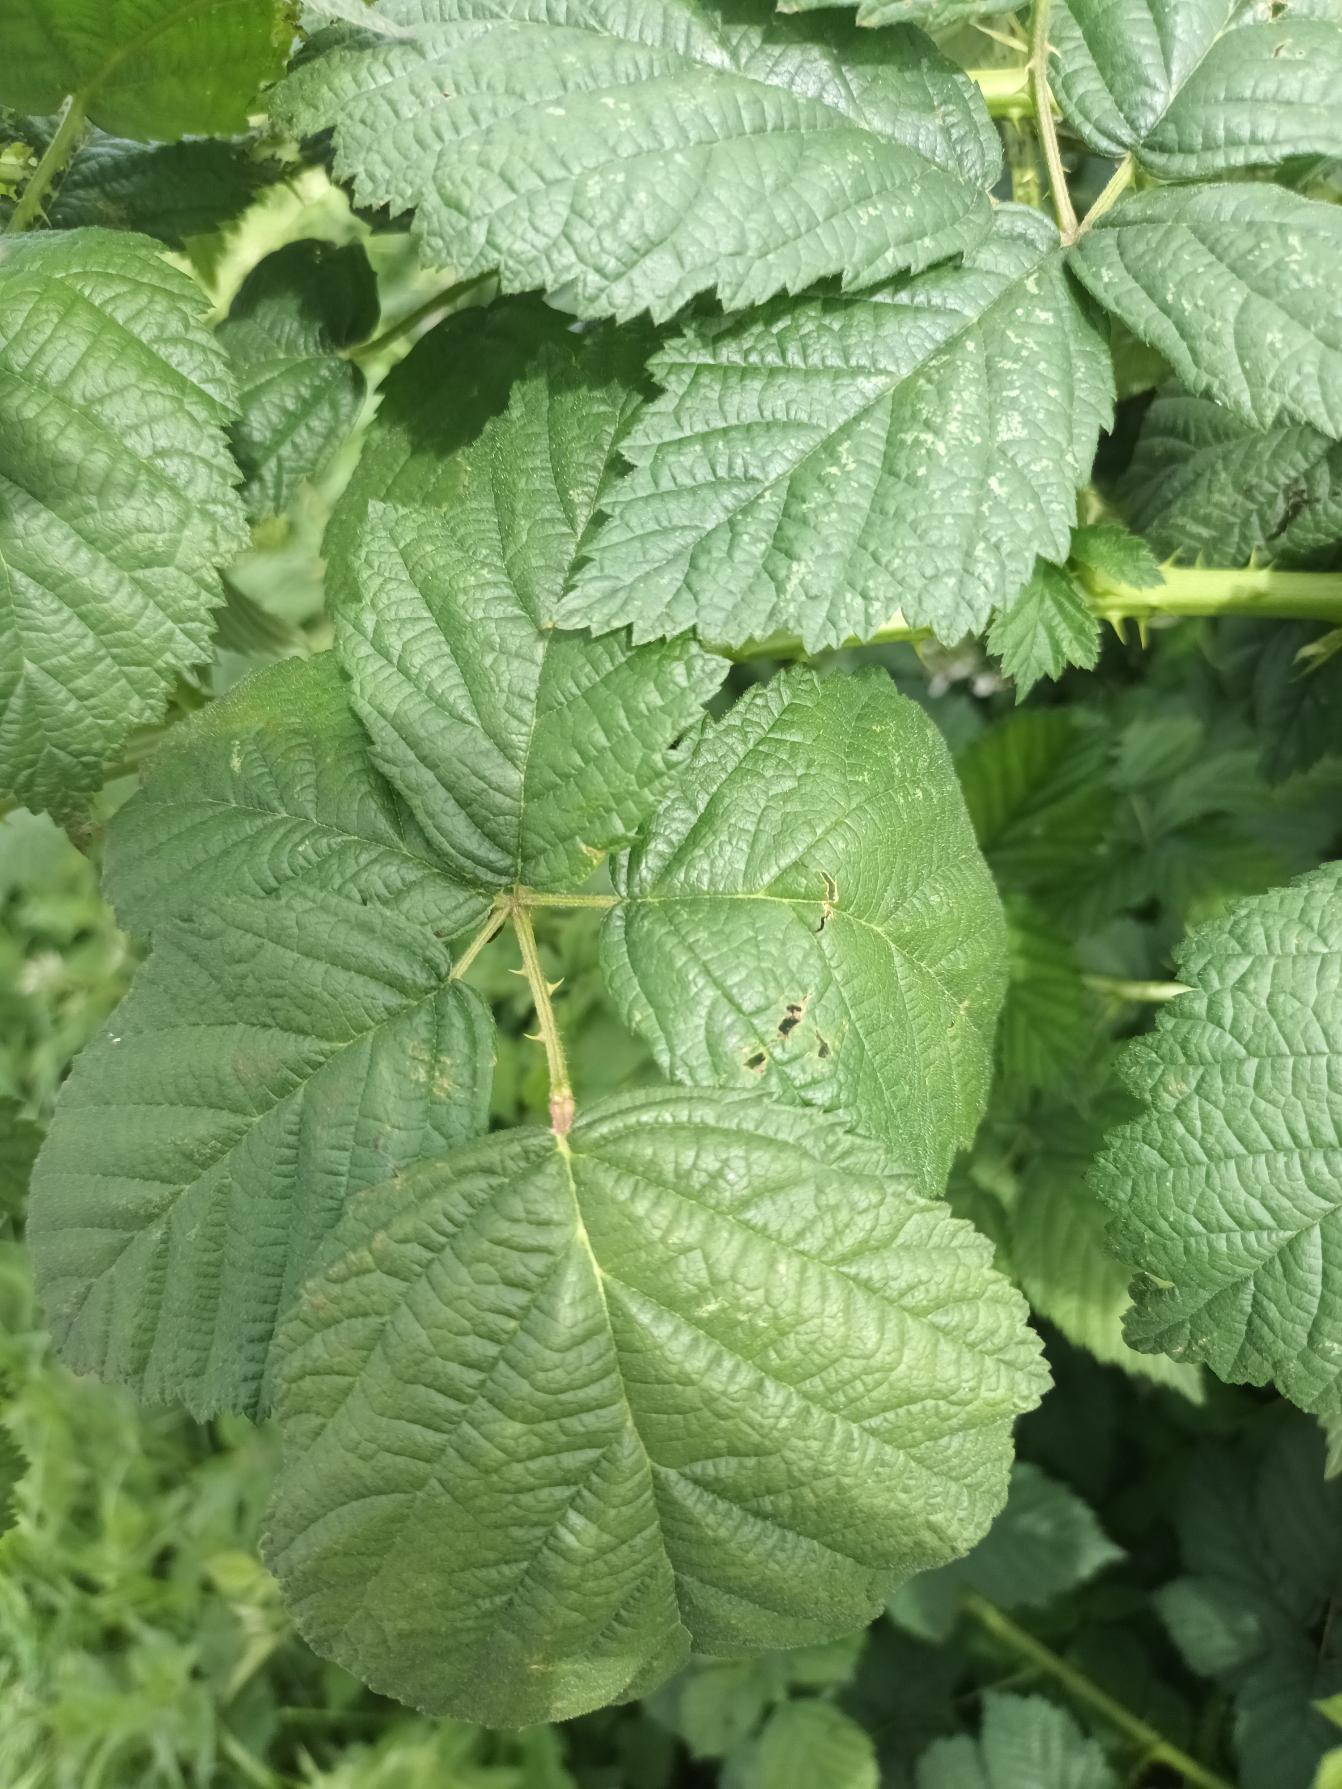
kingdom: Plantae
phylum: Tracheophyta
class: Magnoliopsida
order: Rosales
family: Rosaceae
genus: Rubus
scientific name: Rubus fasciculatus
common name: Gråbladet hasselbrombær
